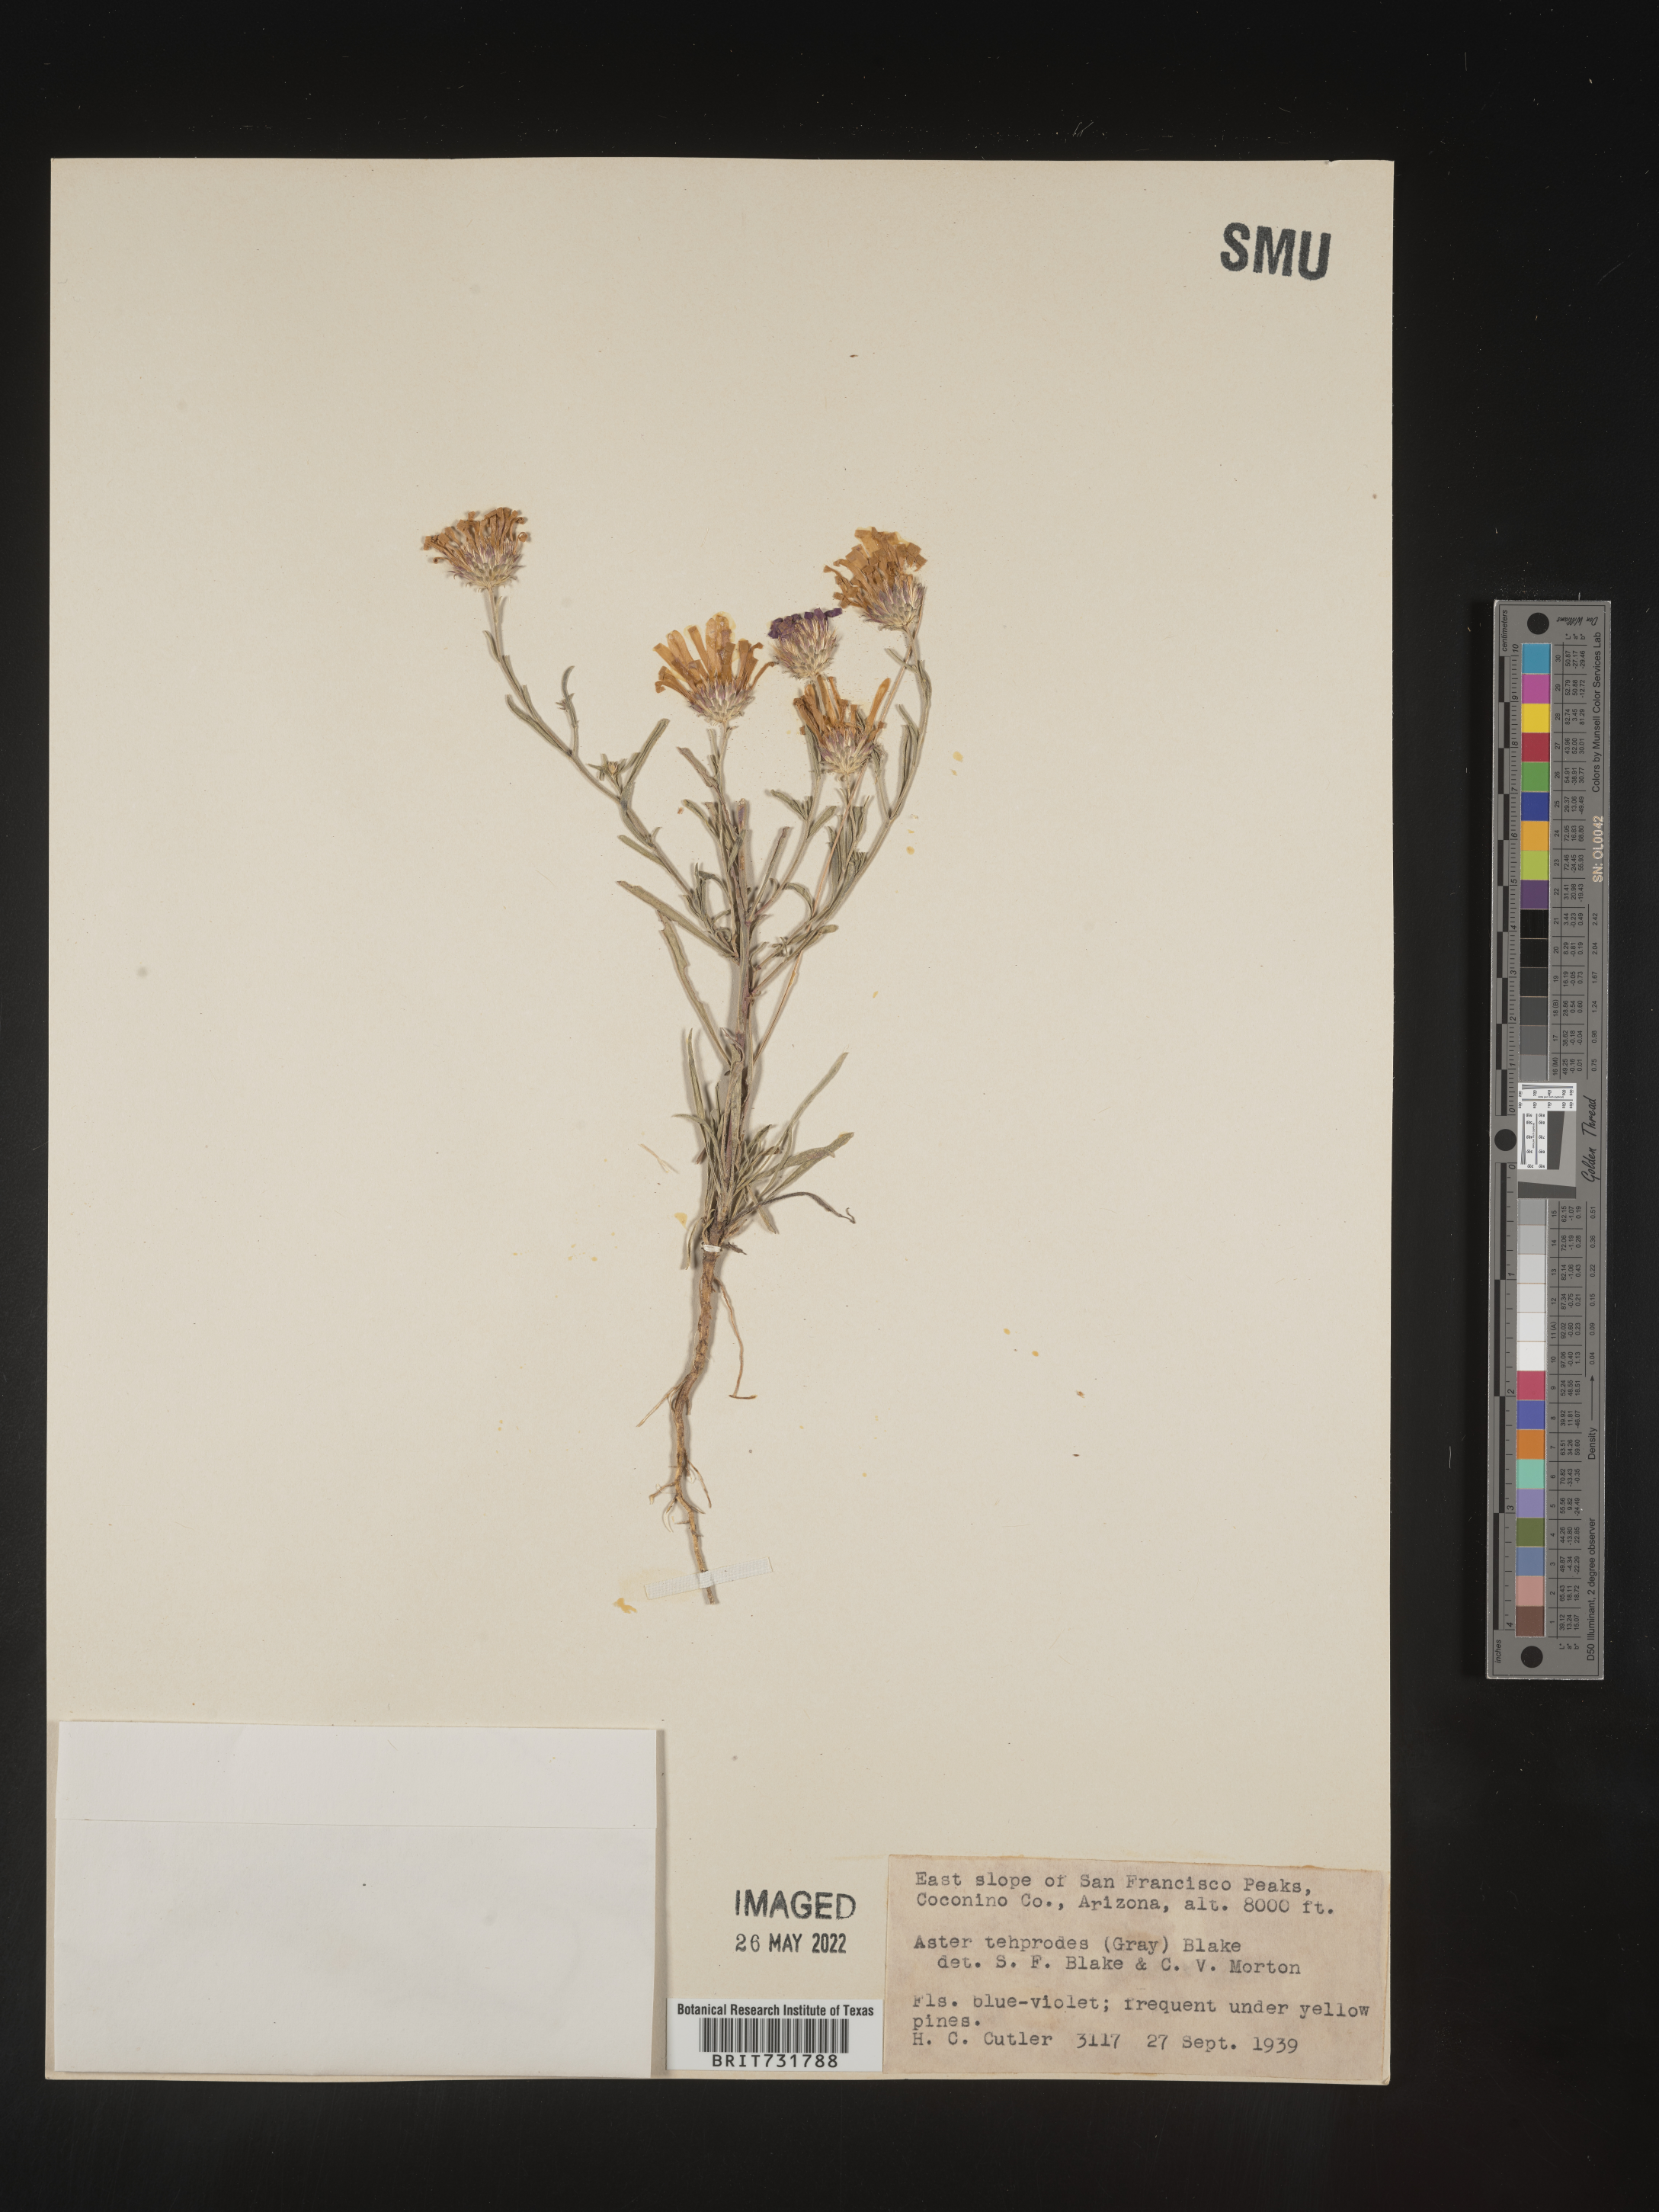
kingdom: Plantae
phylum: Tracheophyta
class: Magnoliopsida
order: Asterales
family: Asteraceae
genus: Machaeranthera
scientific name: Machaeranthera
